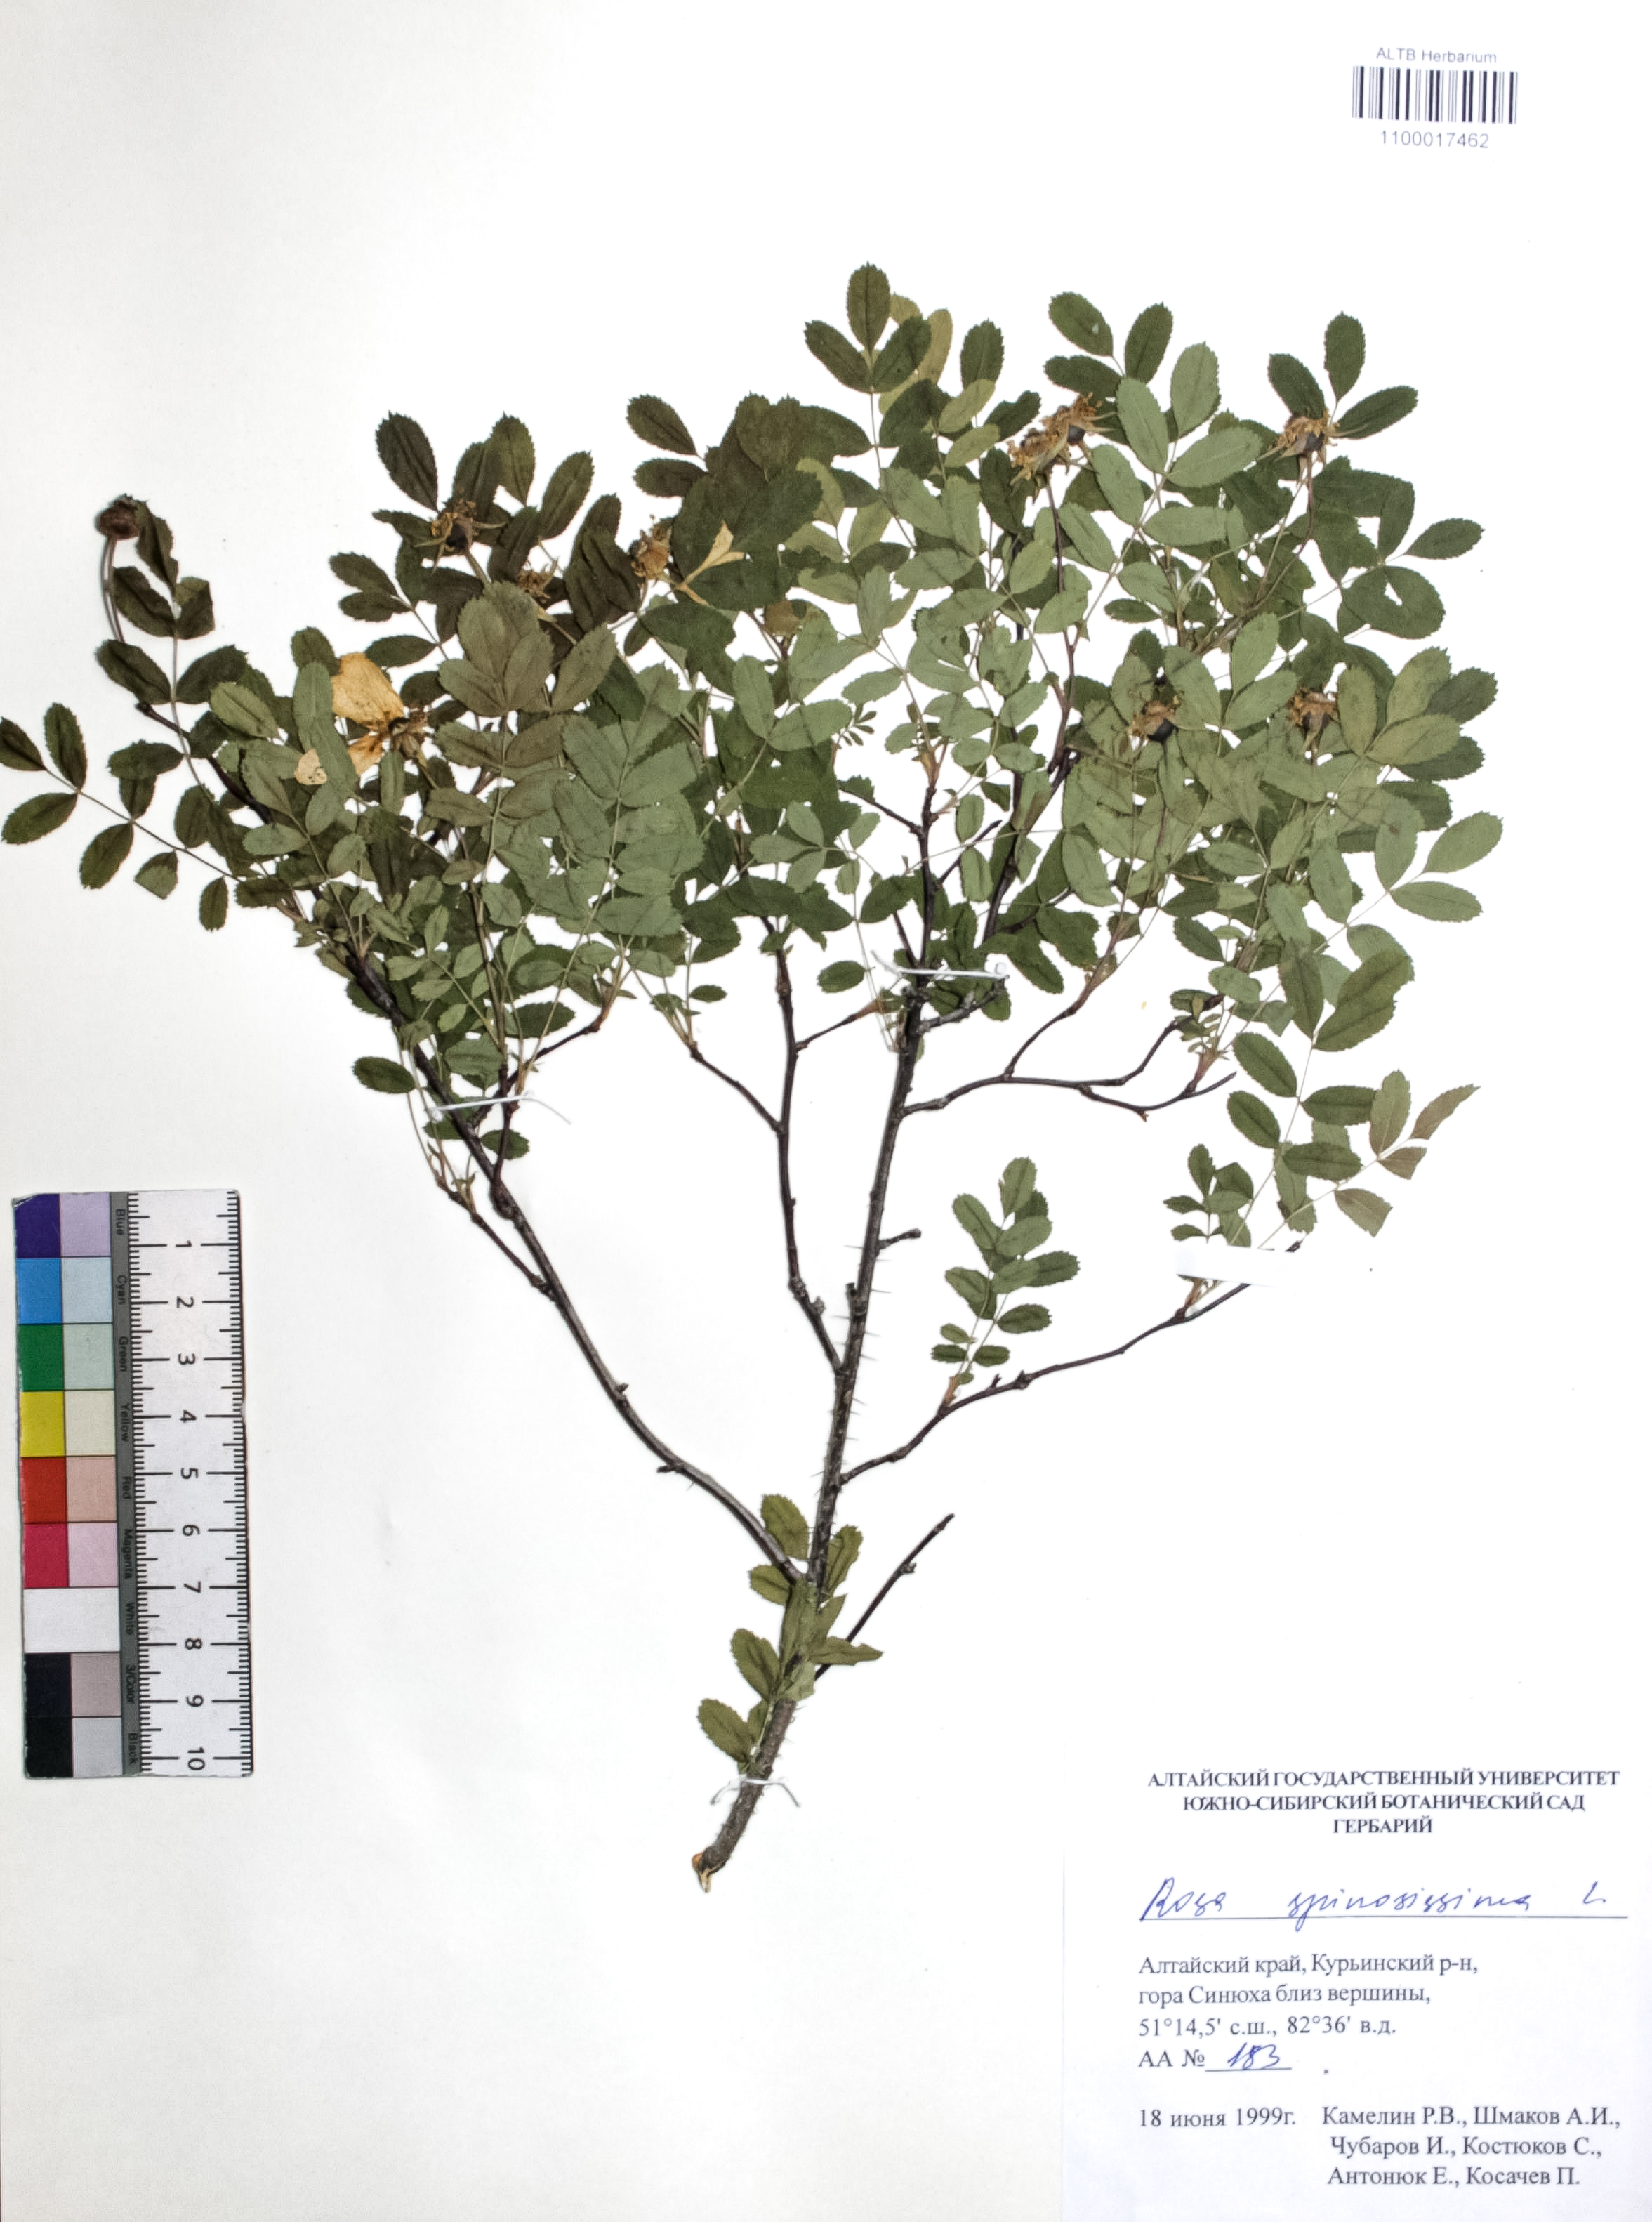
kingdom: Plantae
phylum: Tracheophyta
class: Magnoliopsida
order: Rosales
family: Rosaceae
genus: Rosa
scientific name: Rosa spinosissima
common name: Burnet rose
